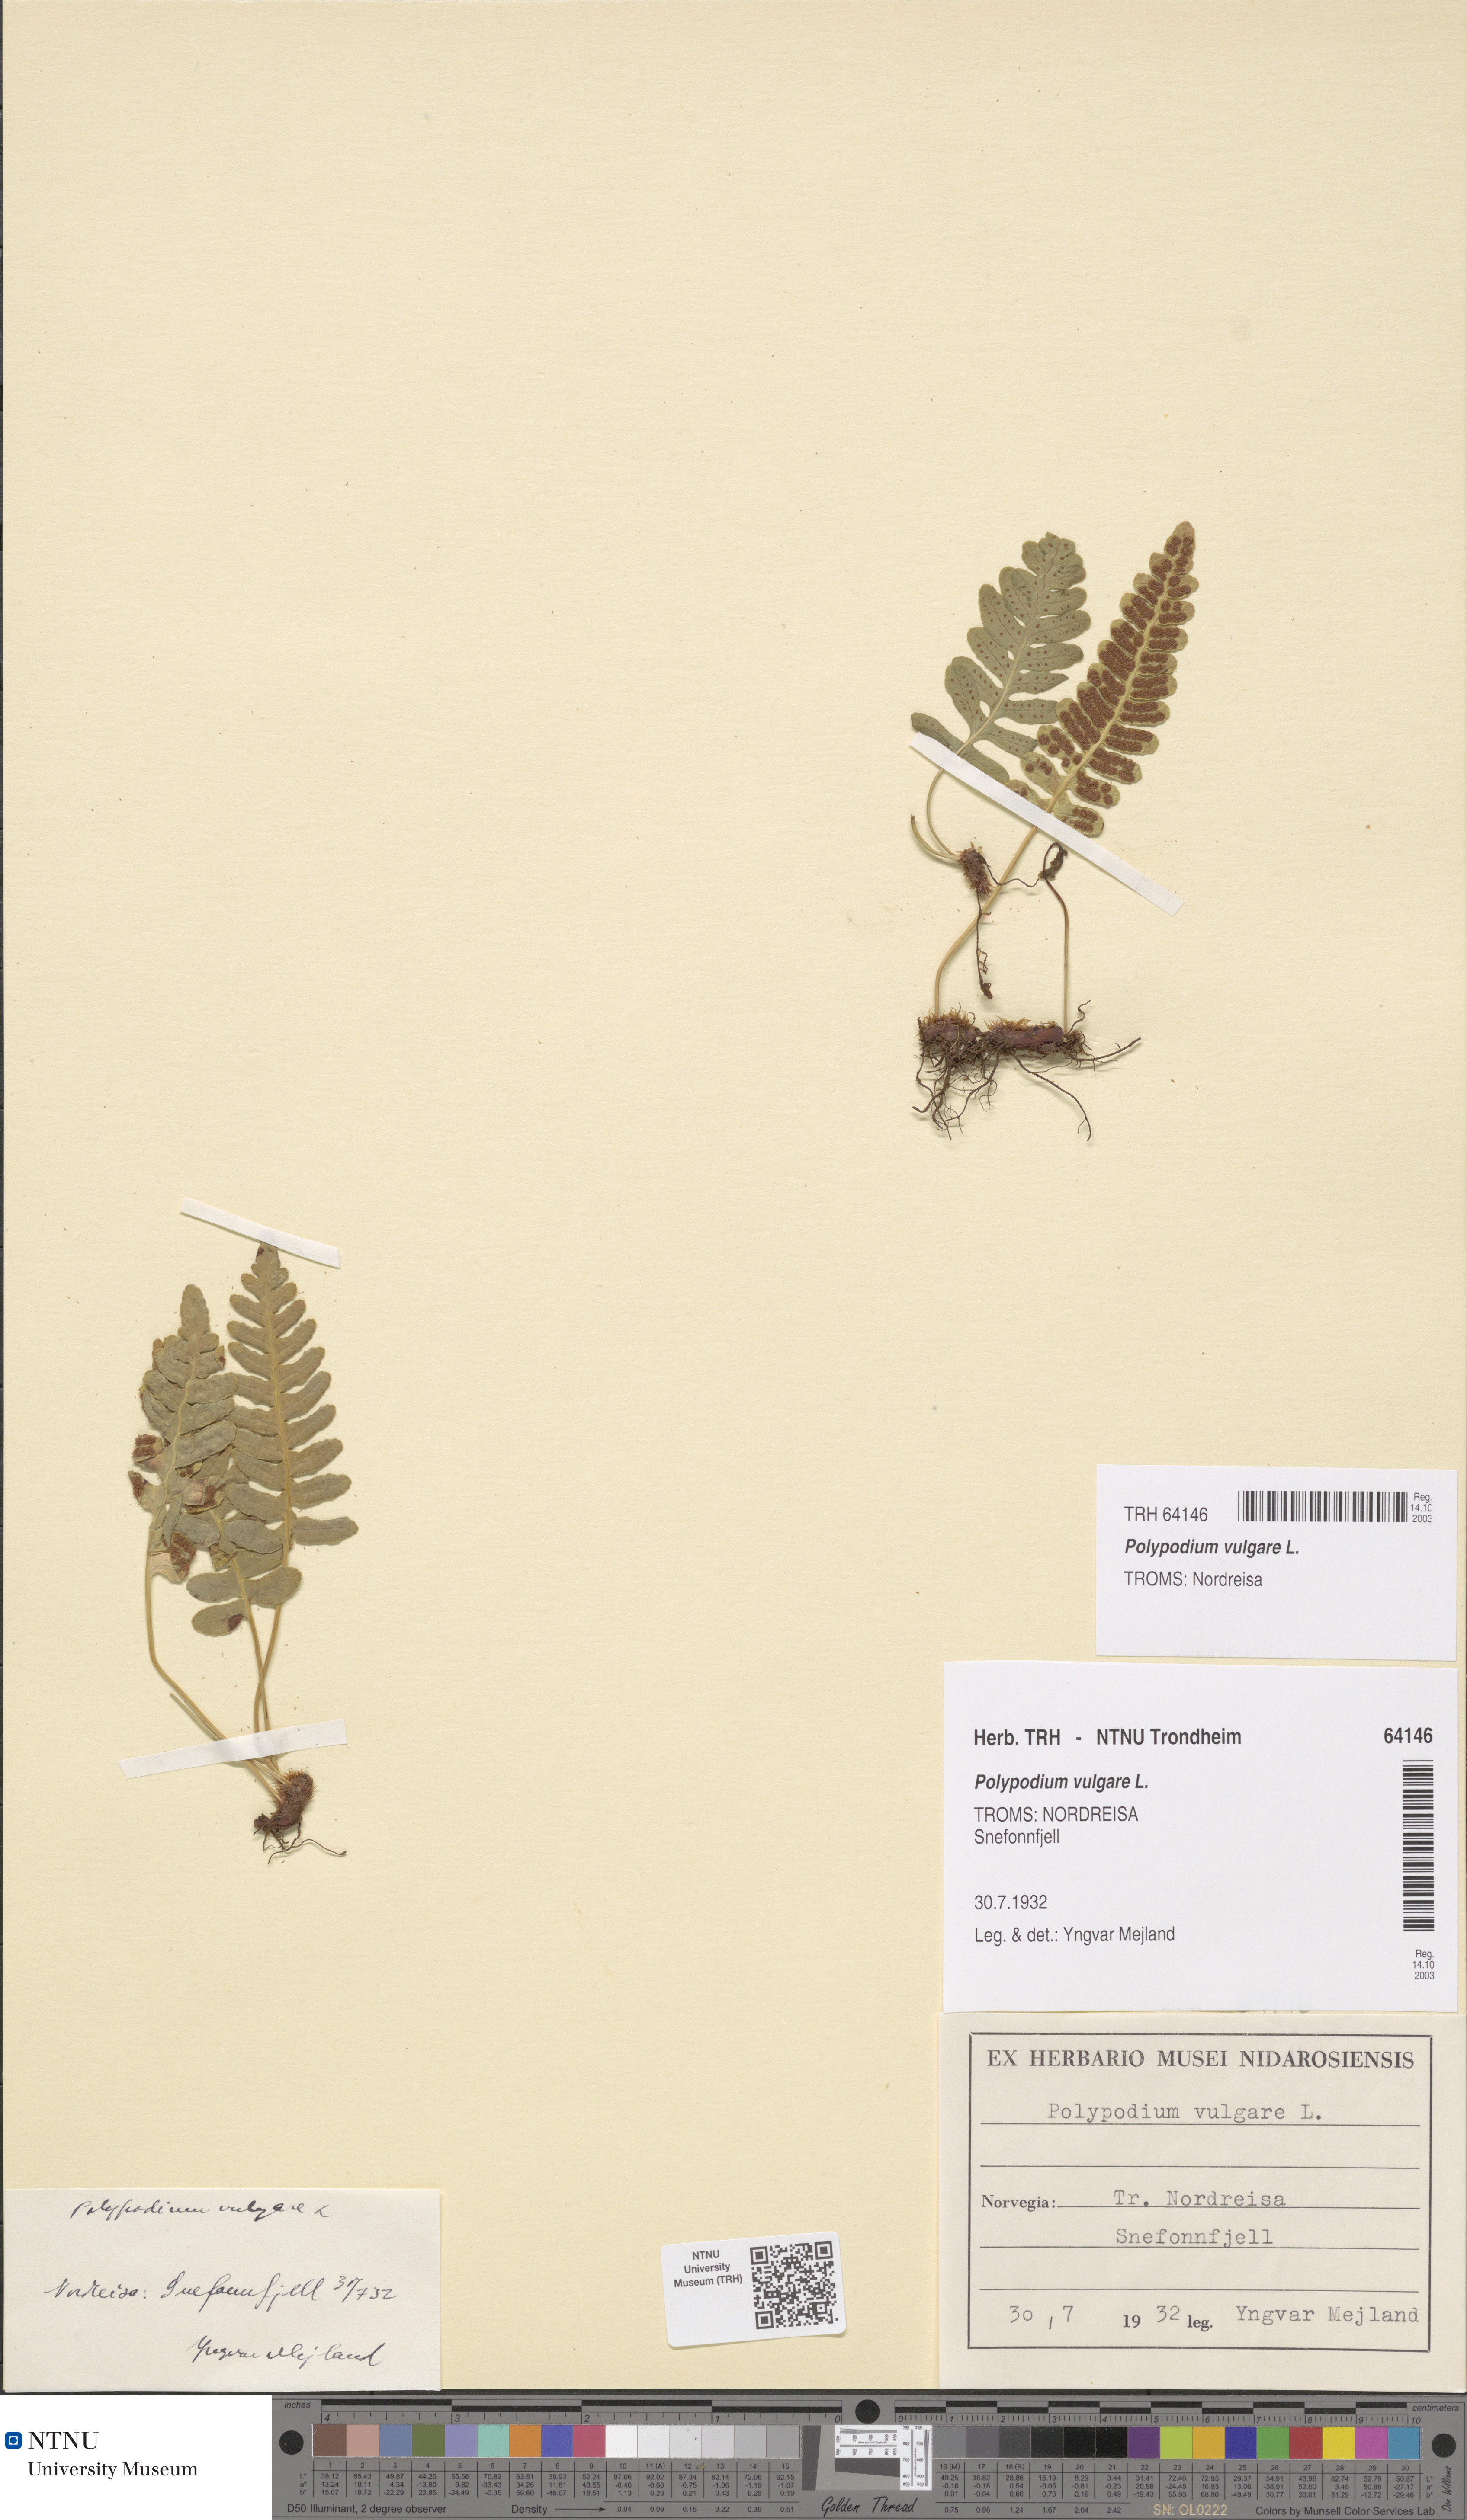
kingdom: Plantae
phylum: Tracheophyta
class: Polypodiopsida
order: Polypodiales
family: Polypodiaceae
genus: Polypodium
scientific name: Polypodium vulgare
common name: Common polypody
